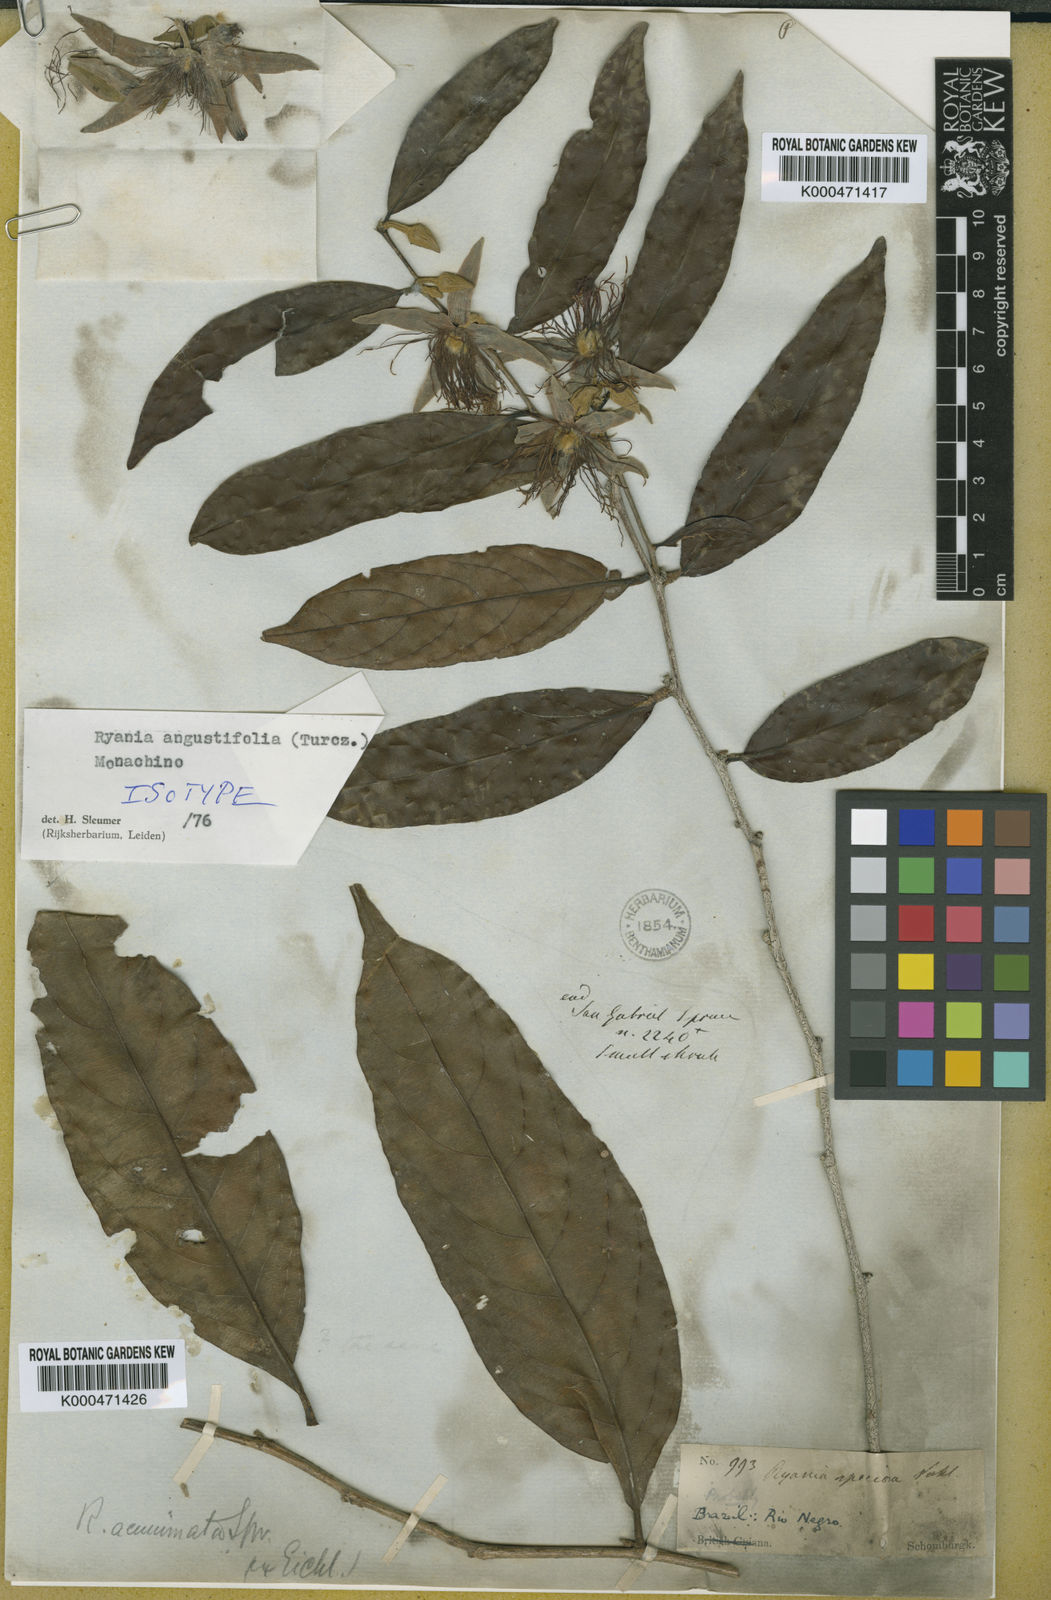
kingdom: Plantae
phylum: Tracheophyta
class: Magnoliopsida
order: Malpighiales
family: Salicaceae
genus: Ryania
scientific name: Ryania angustifolia
